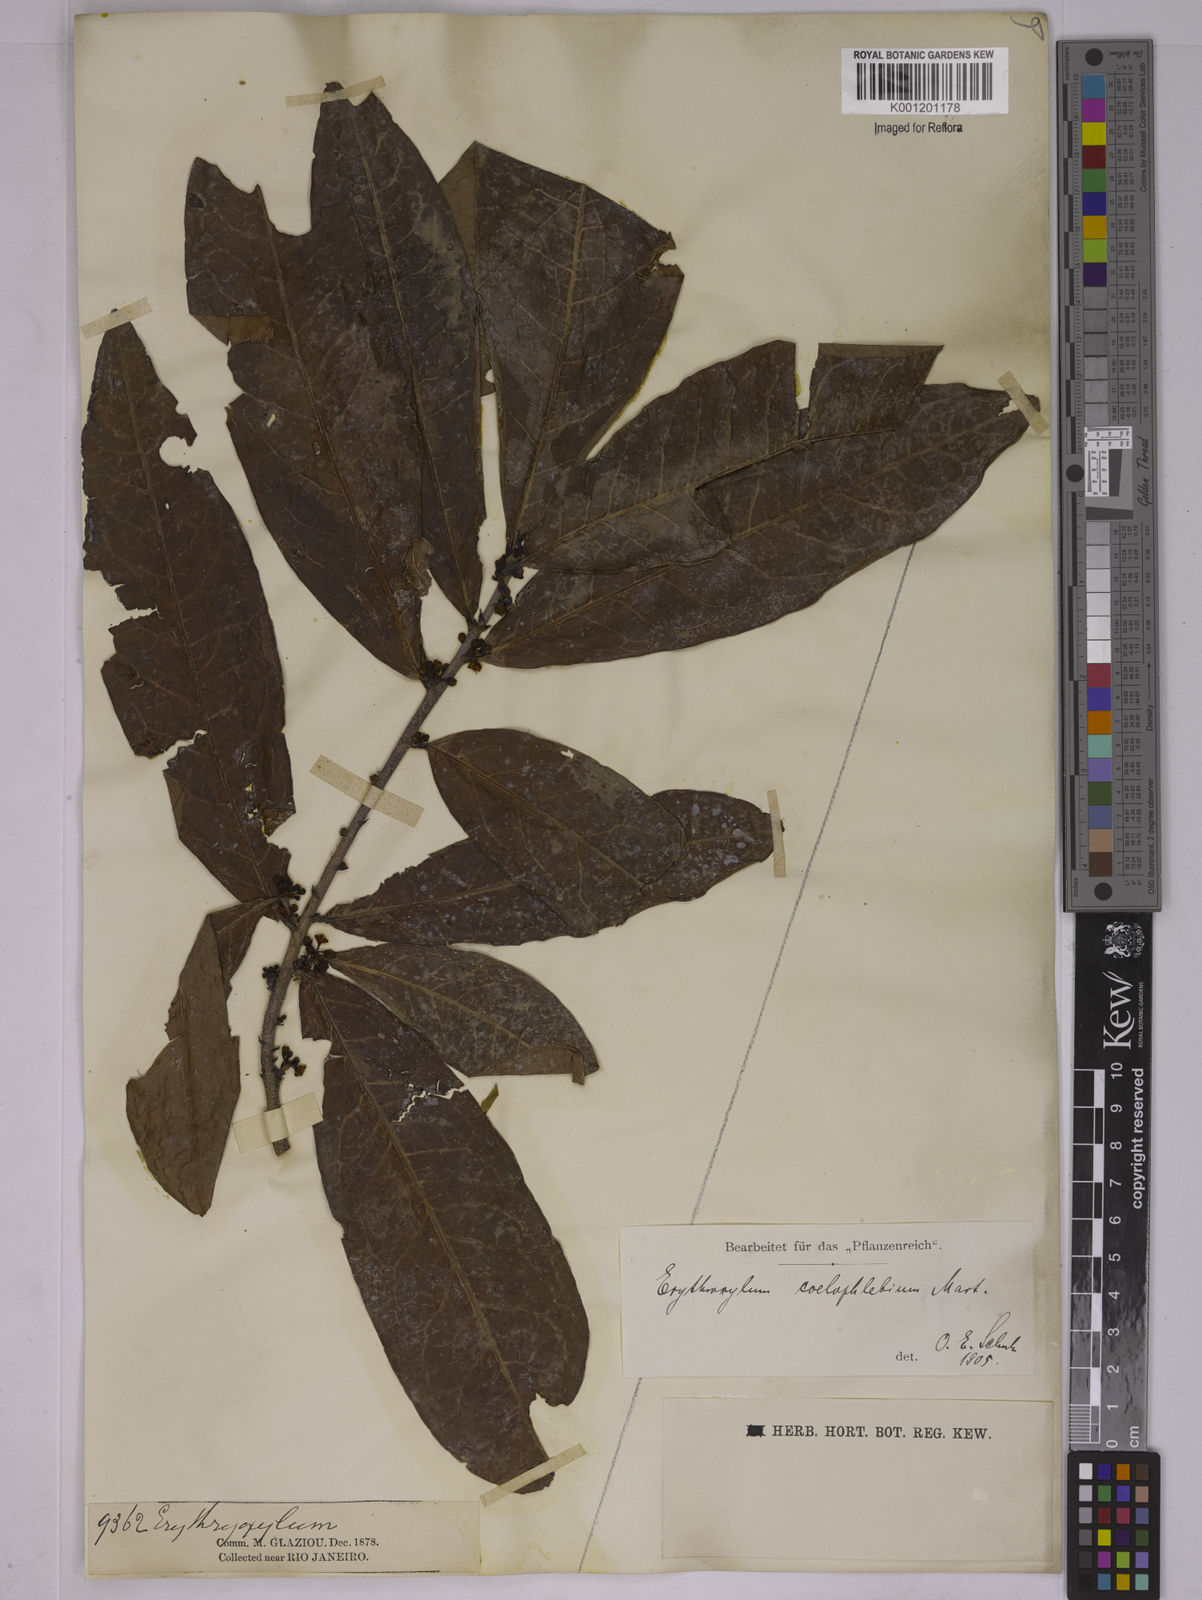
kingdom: Plantae
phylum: Tracheophyta
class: Magnoliopsida
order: Malpighiales
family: Erythroxylaceae
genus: Erythroxylum
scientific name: Erythroxylum coelophlebium
